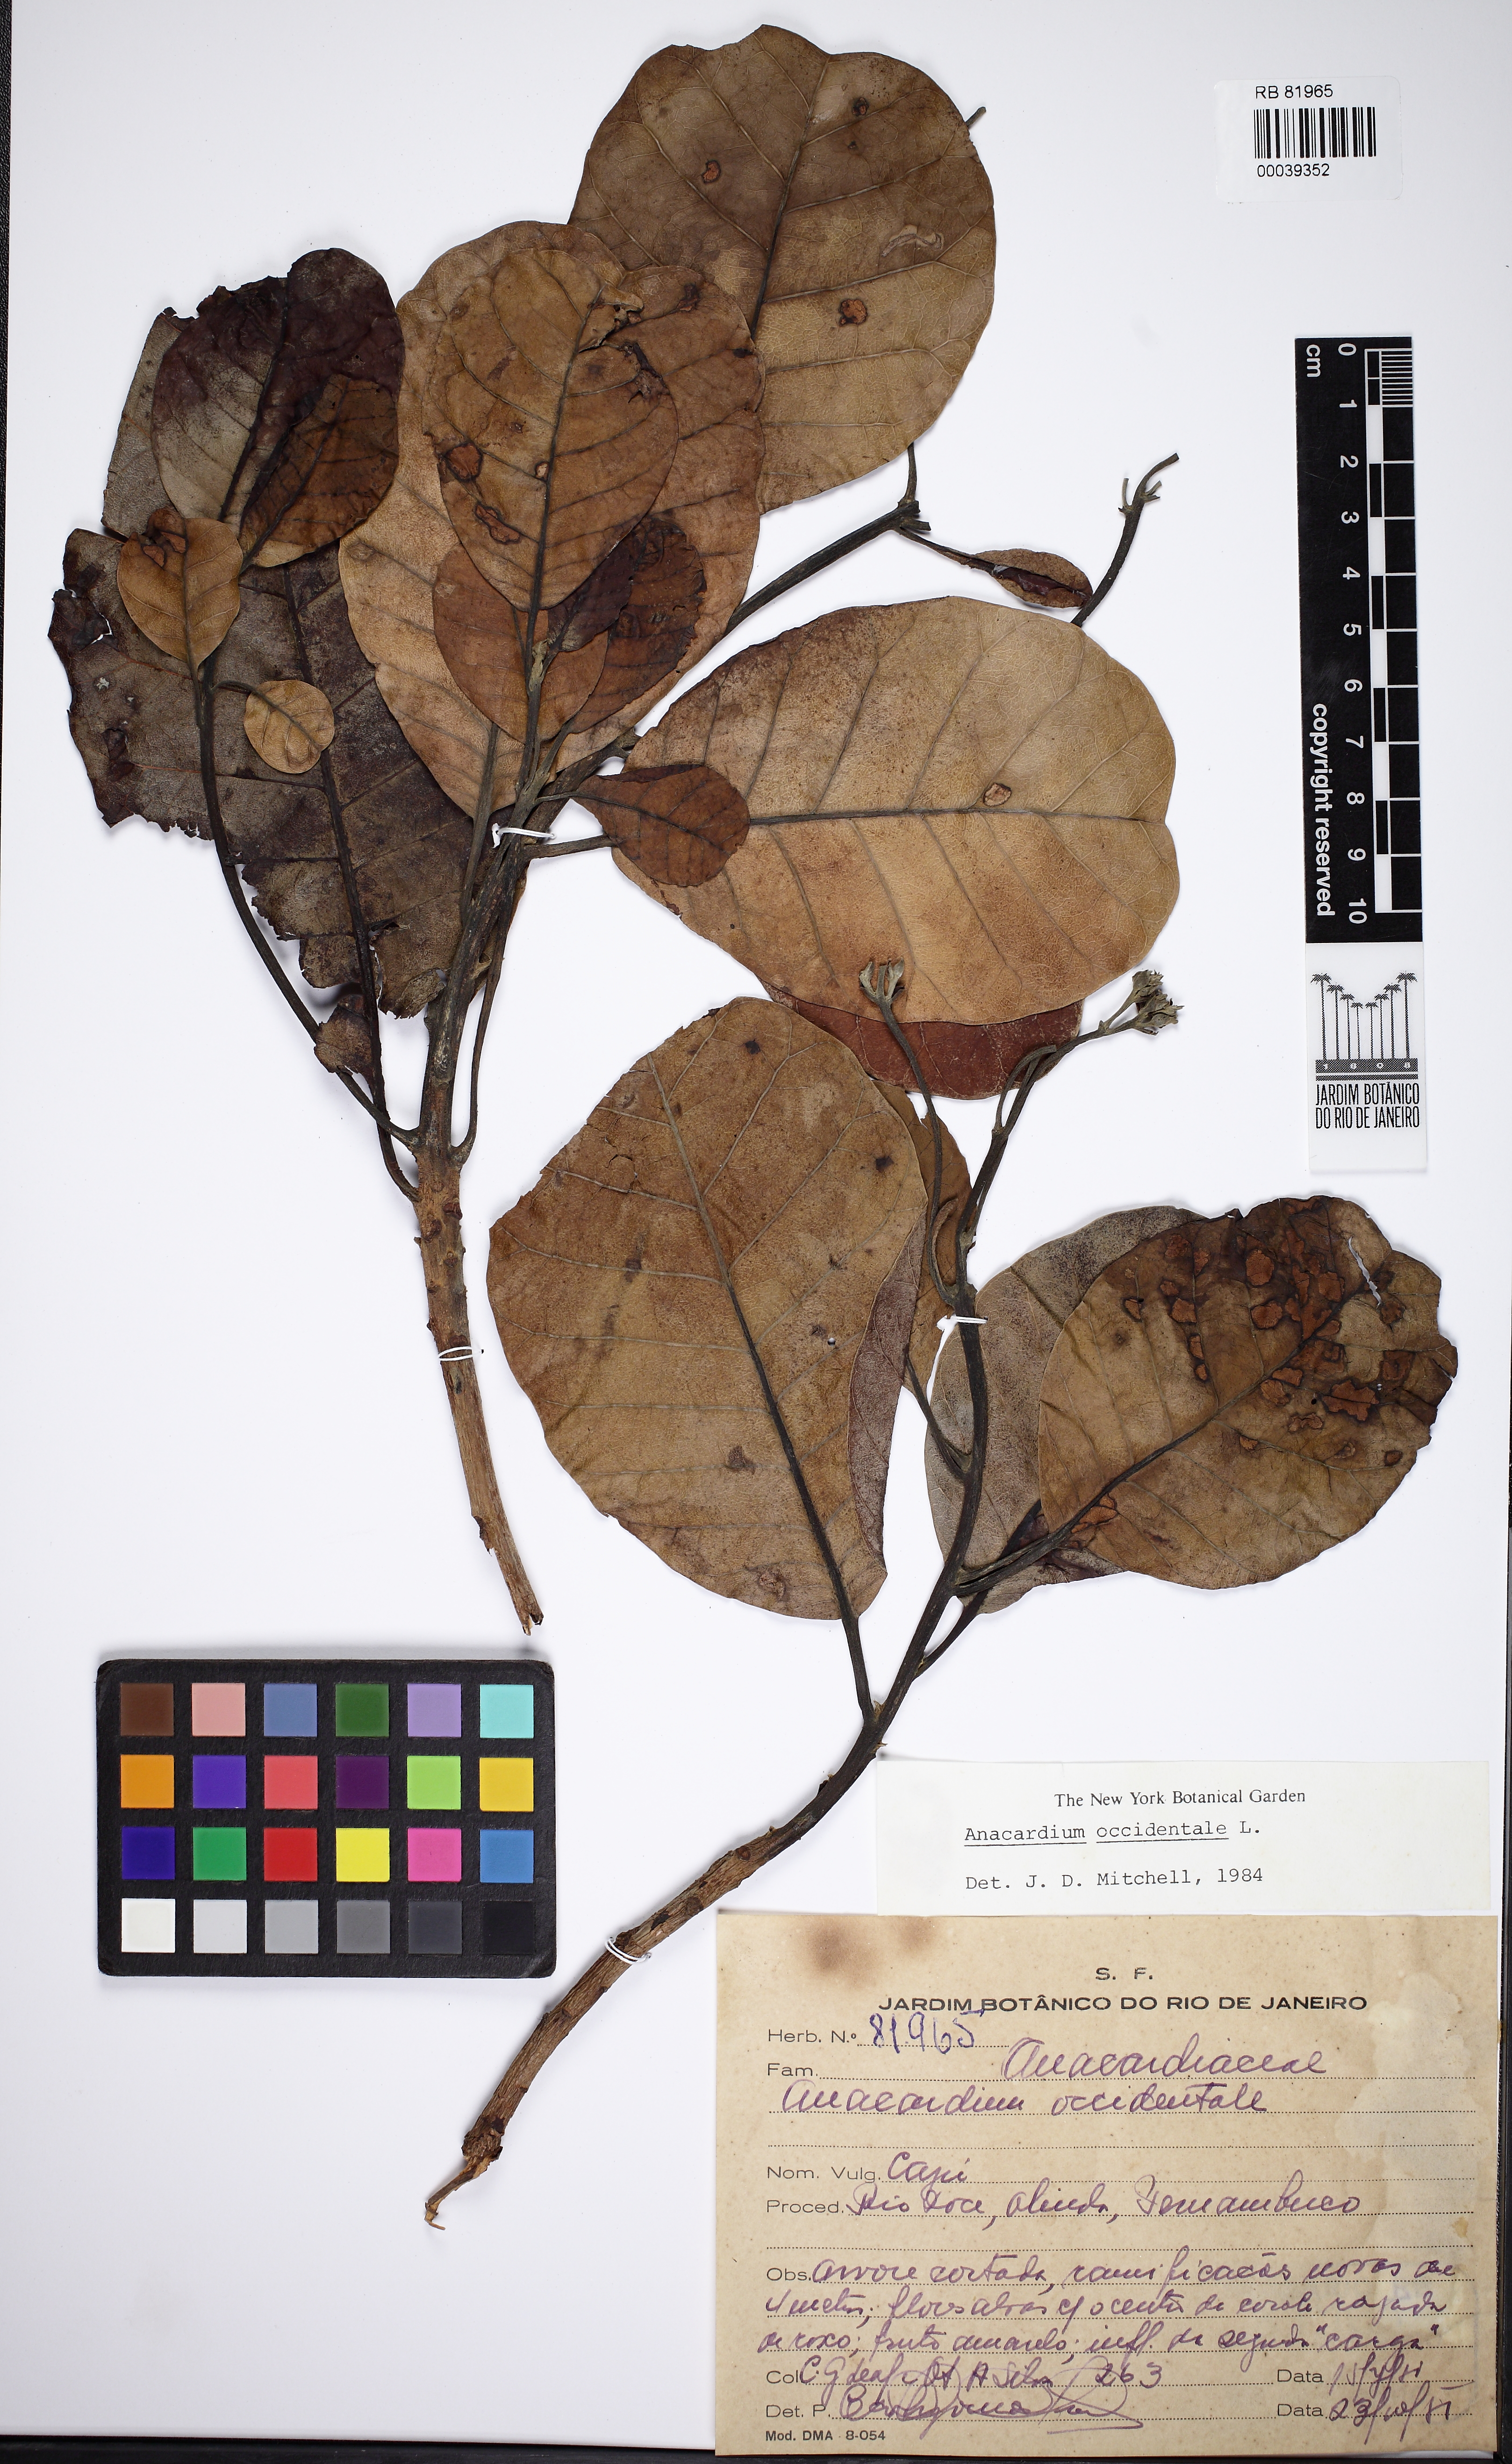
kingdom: Plantae
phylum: Tracheophyta
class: Magnoliopsida
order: Sapindales
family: Anacardiaceae
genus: Anacardium
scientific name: Anacardium occidentale
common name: Cashew
